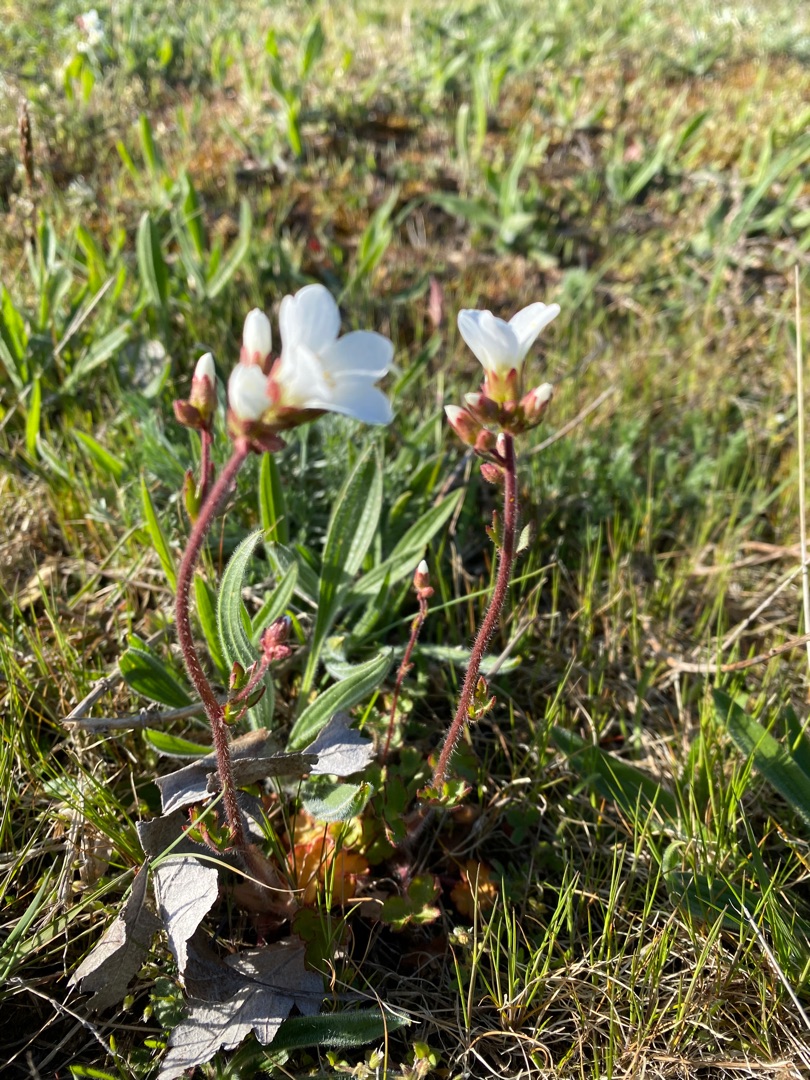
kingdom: Plantae
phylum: Tracheophyta
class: Magnoliopsida
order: Saxifragales
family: Saxifragaceae
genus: Saxifraga
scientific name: Saxifraga granulata
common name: Kornet stenbræk
